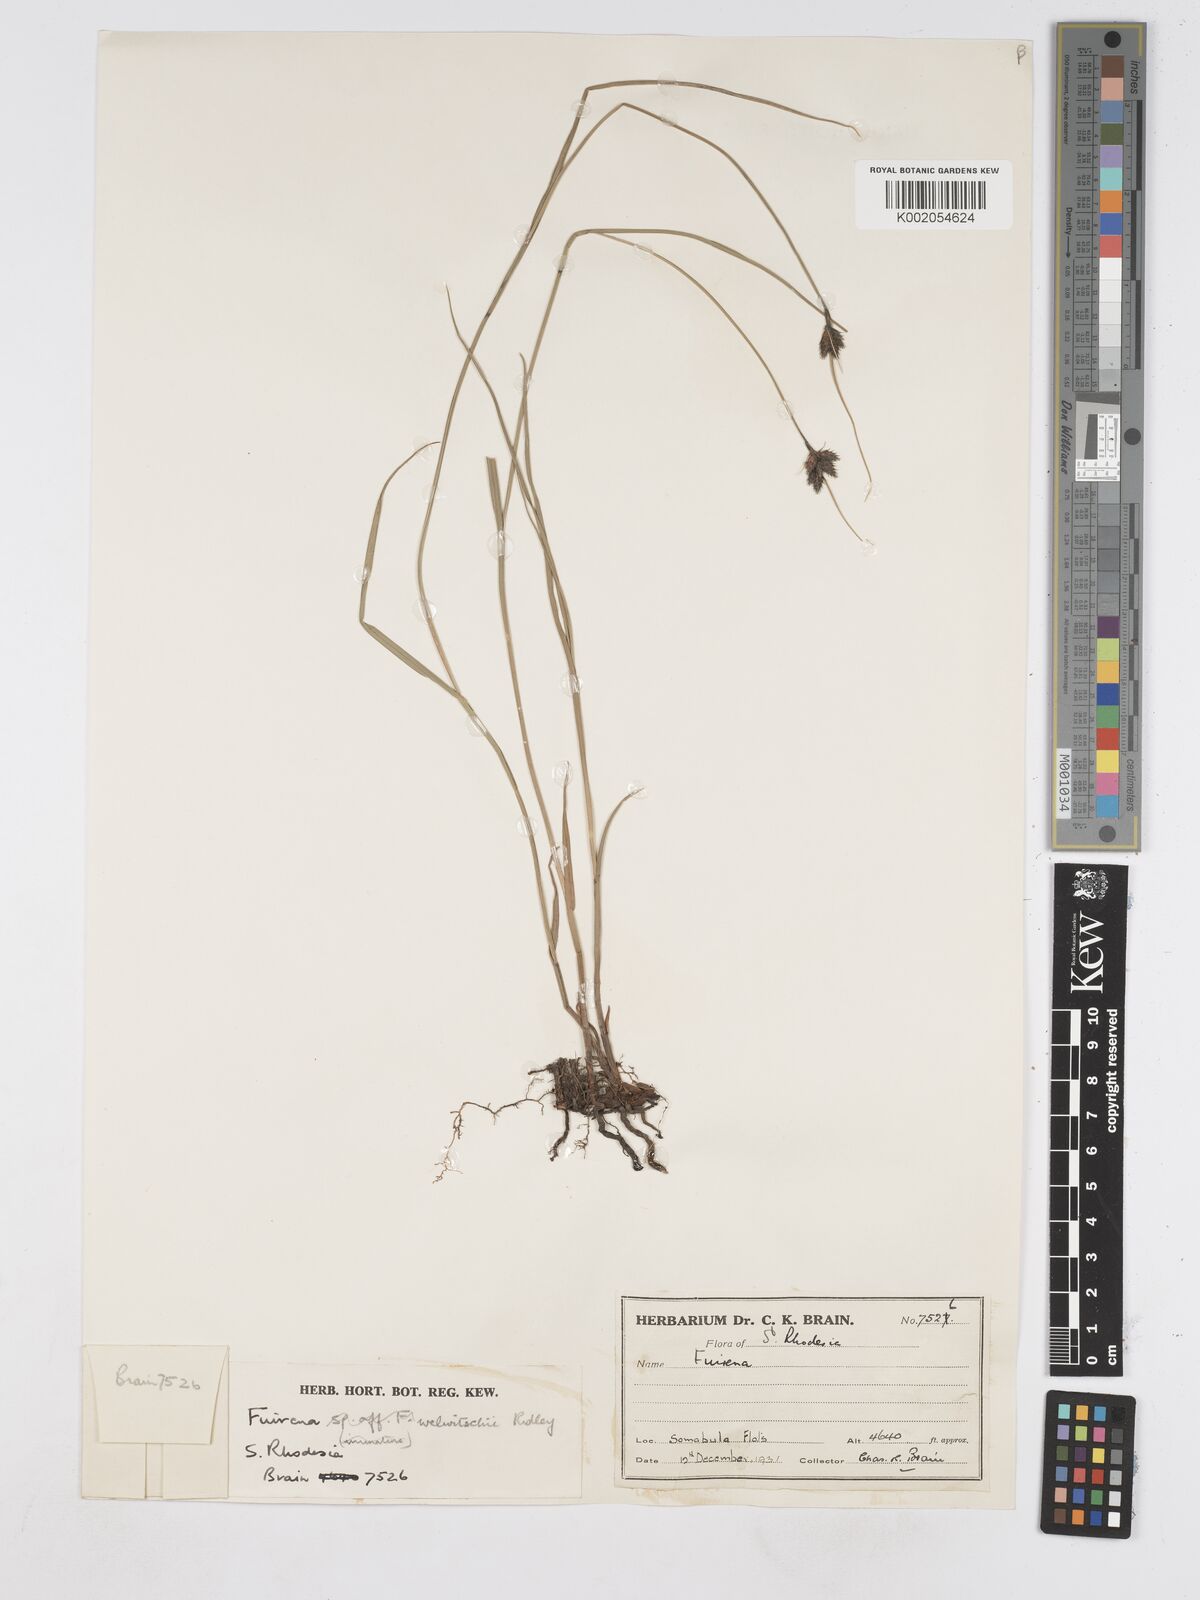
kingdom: Plantae
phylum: Tracheophyta
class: Liliopsida
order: Poales
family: Cyperaceae
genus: Fuirena
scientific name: Fuirena welwitschii
